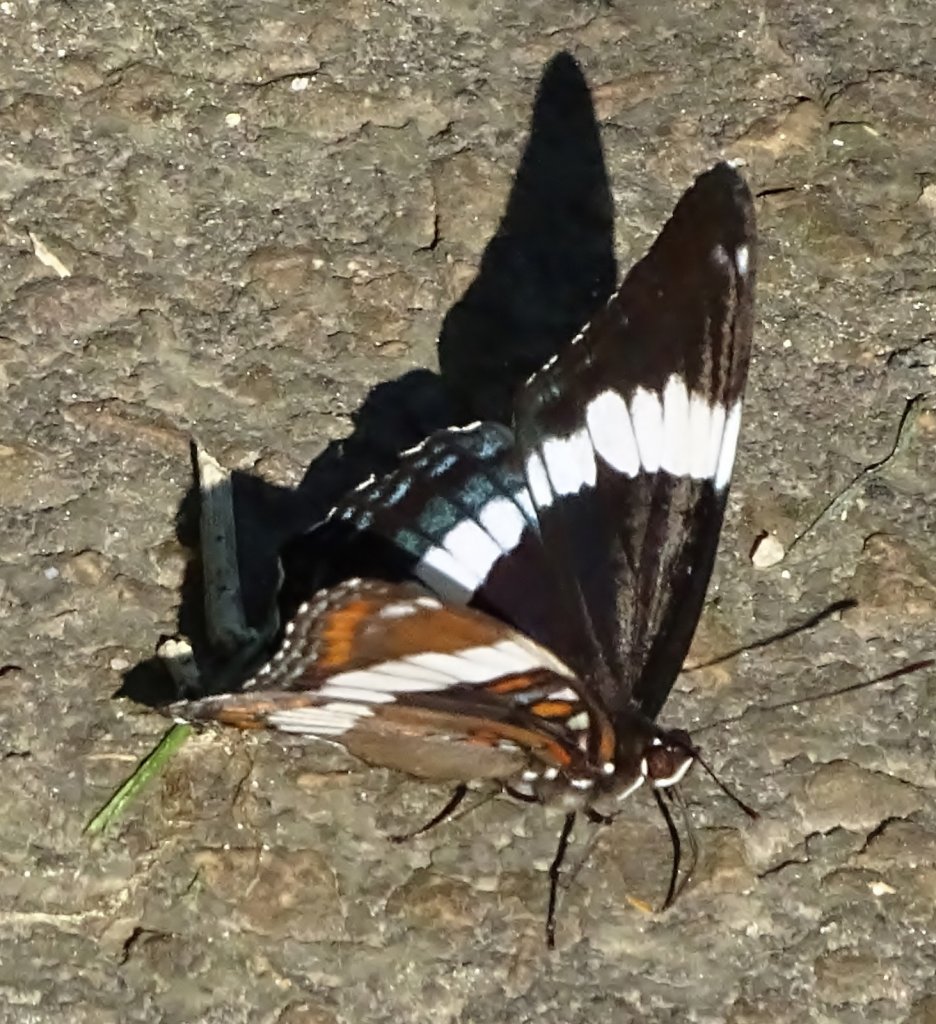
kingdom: Animalia
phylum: Arthropoda
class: Insecta
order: Lepidoptera
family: Nymphalidae
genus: Limenitis
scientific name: Limenitis arthemis
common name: Red-spotted Admiral
